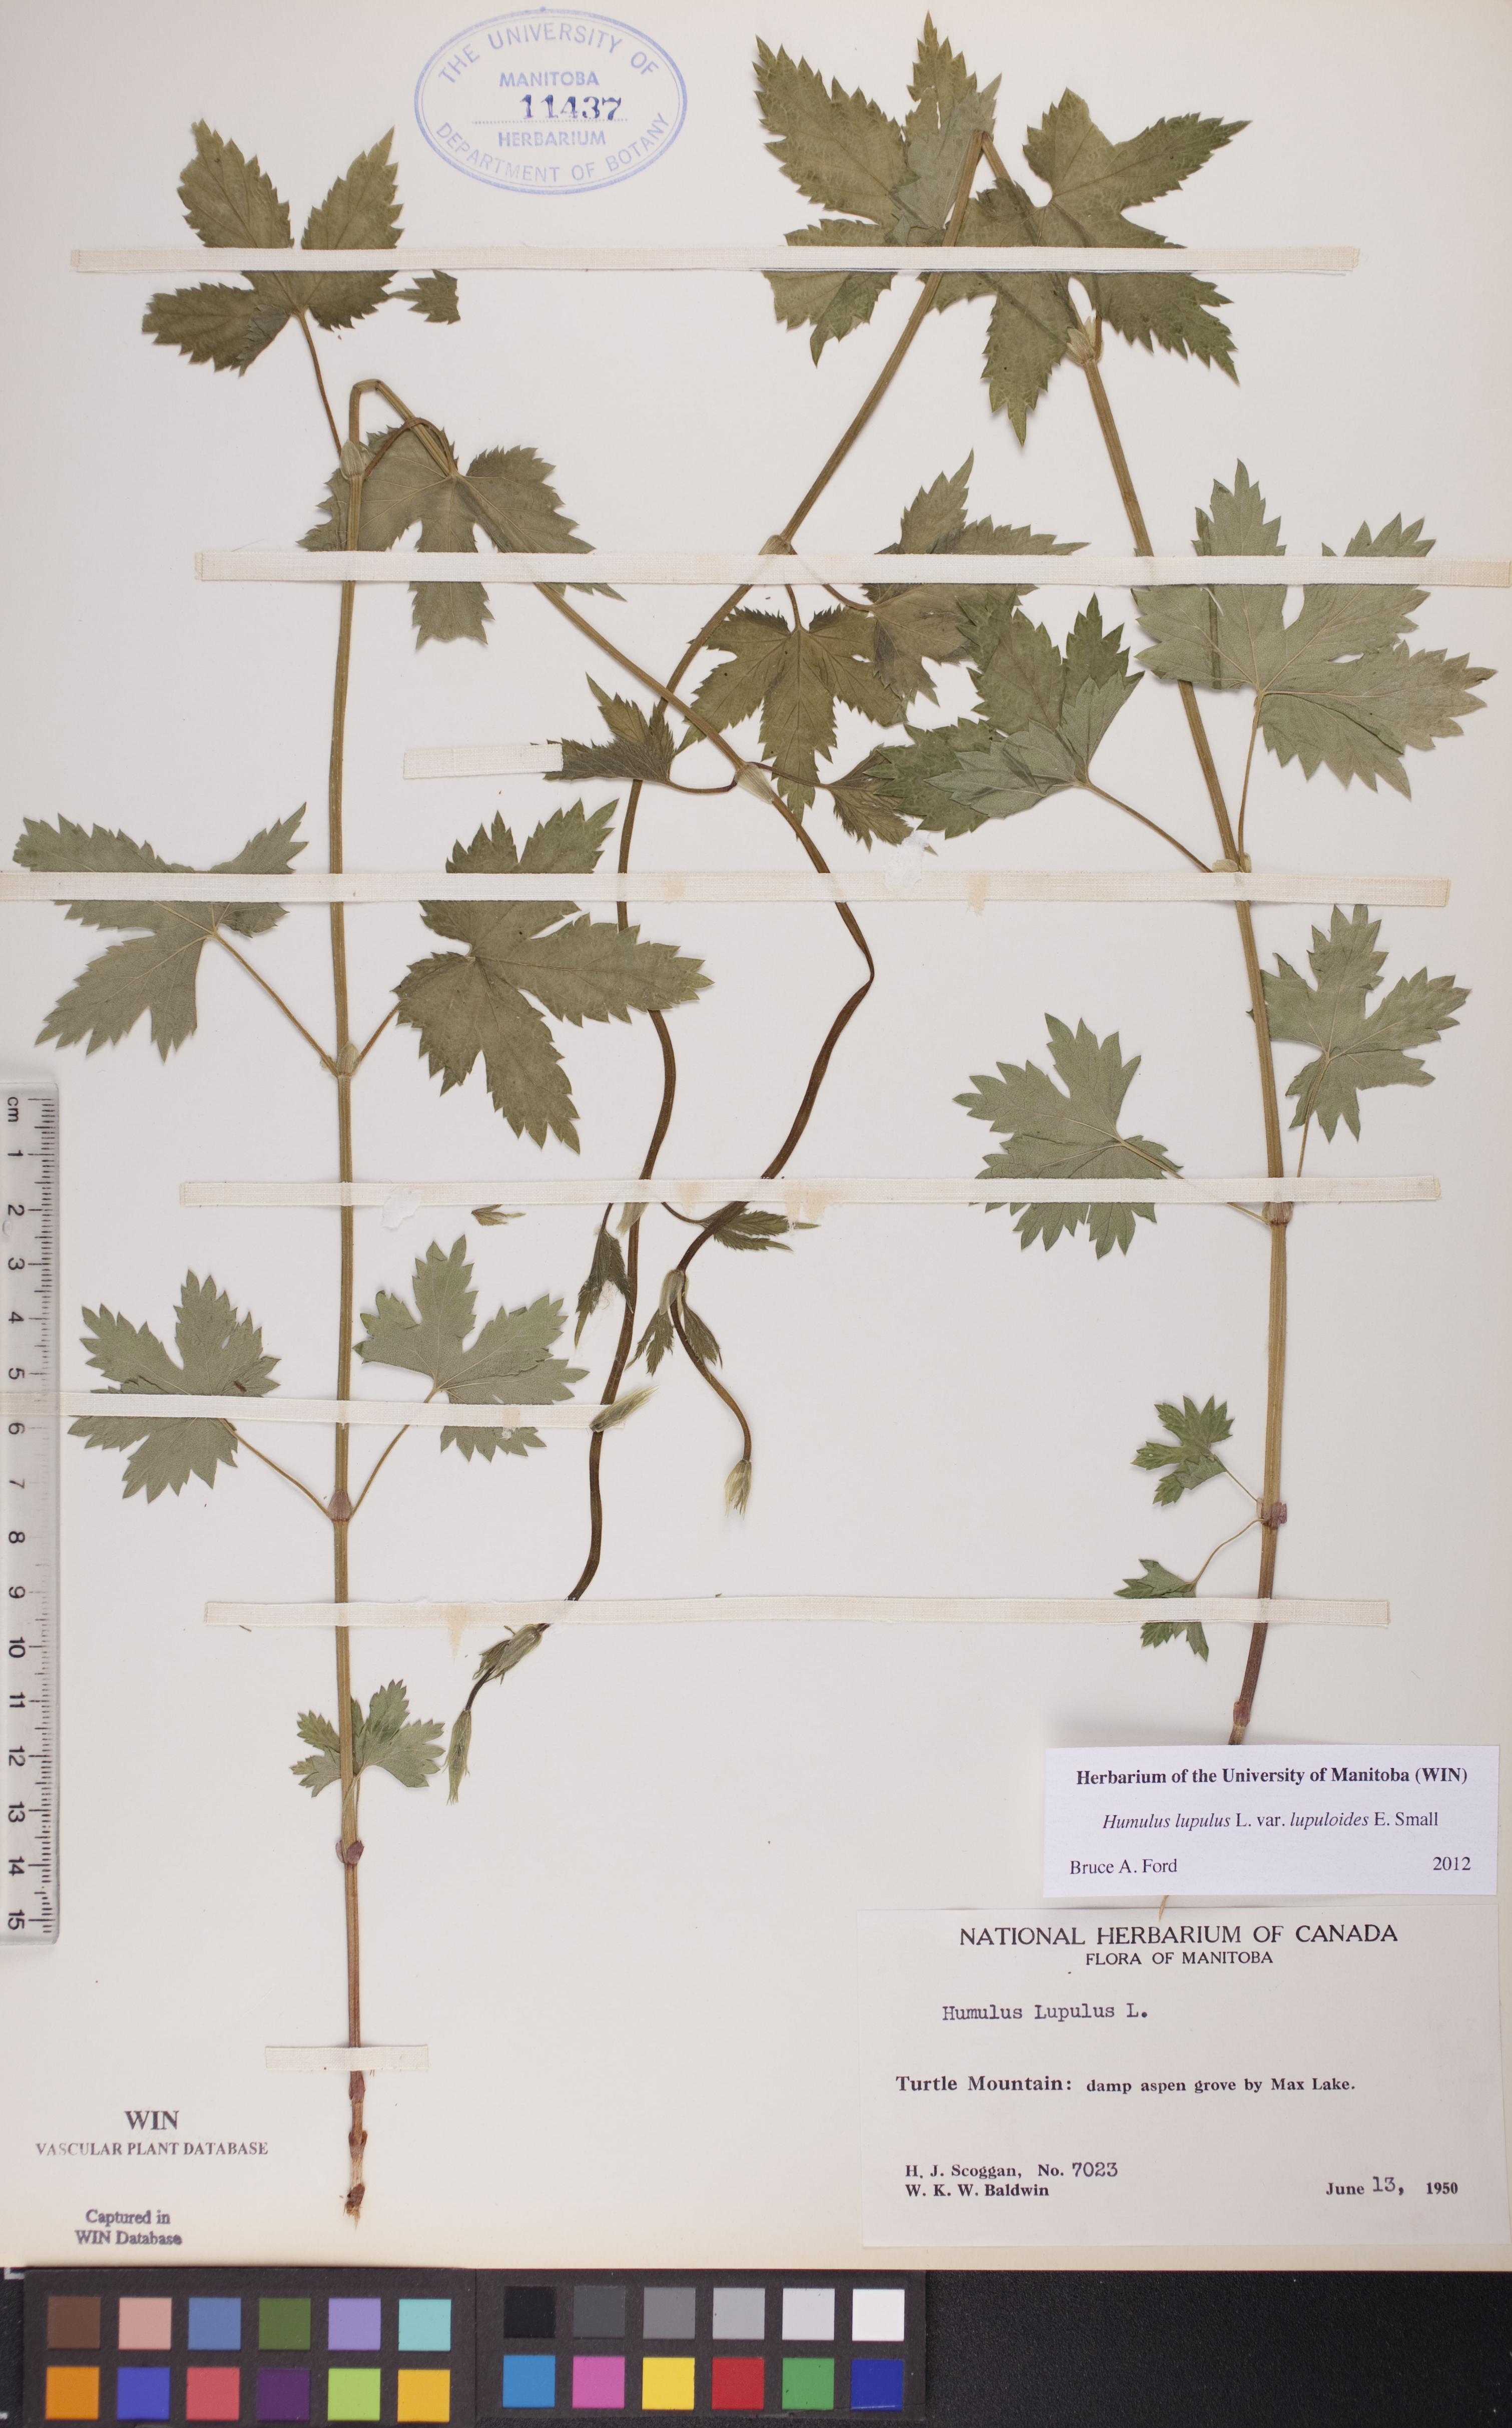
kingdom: Plantae
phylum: Tracheophyta
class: Magnoliopsida
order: Rosales
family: Cannabaceae
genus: Humulus
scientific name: Humulus americanus
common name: American hops
